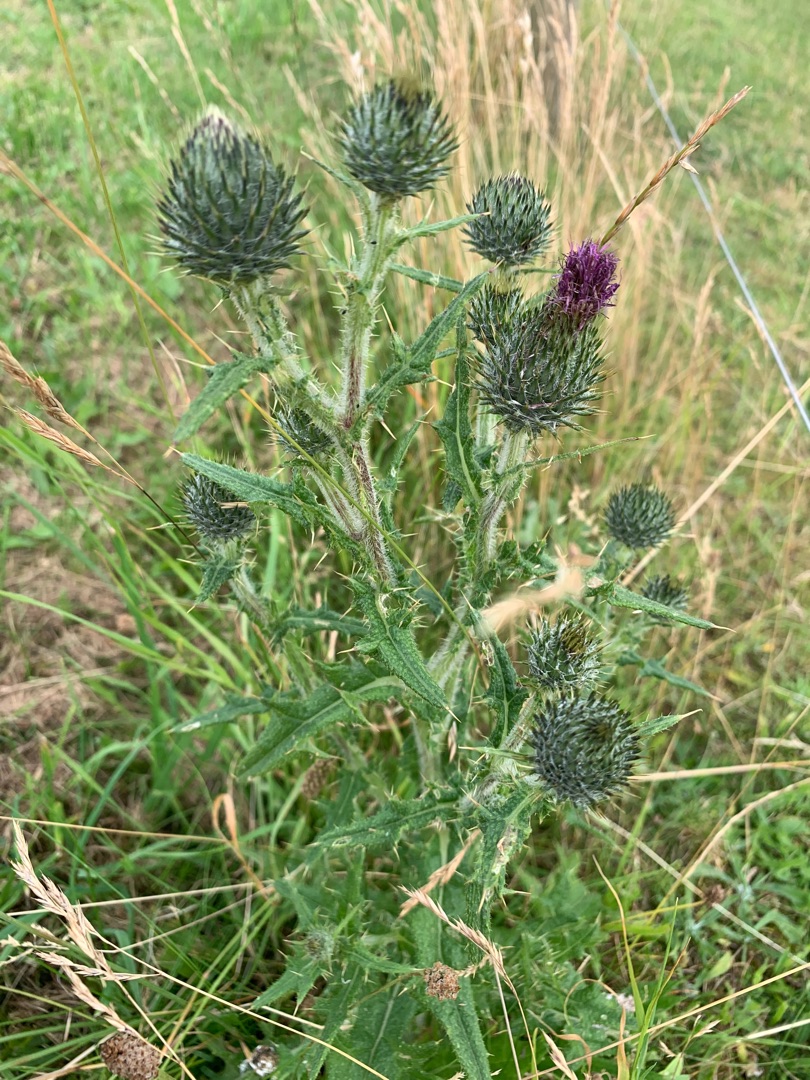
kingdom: Plantae
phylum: Tracheophyta
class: Magnoliopsida
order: Asterales
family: Asteraceae
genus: Cirsium
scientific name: Cirsium vulgare
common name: Horse-tidsel
